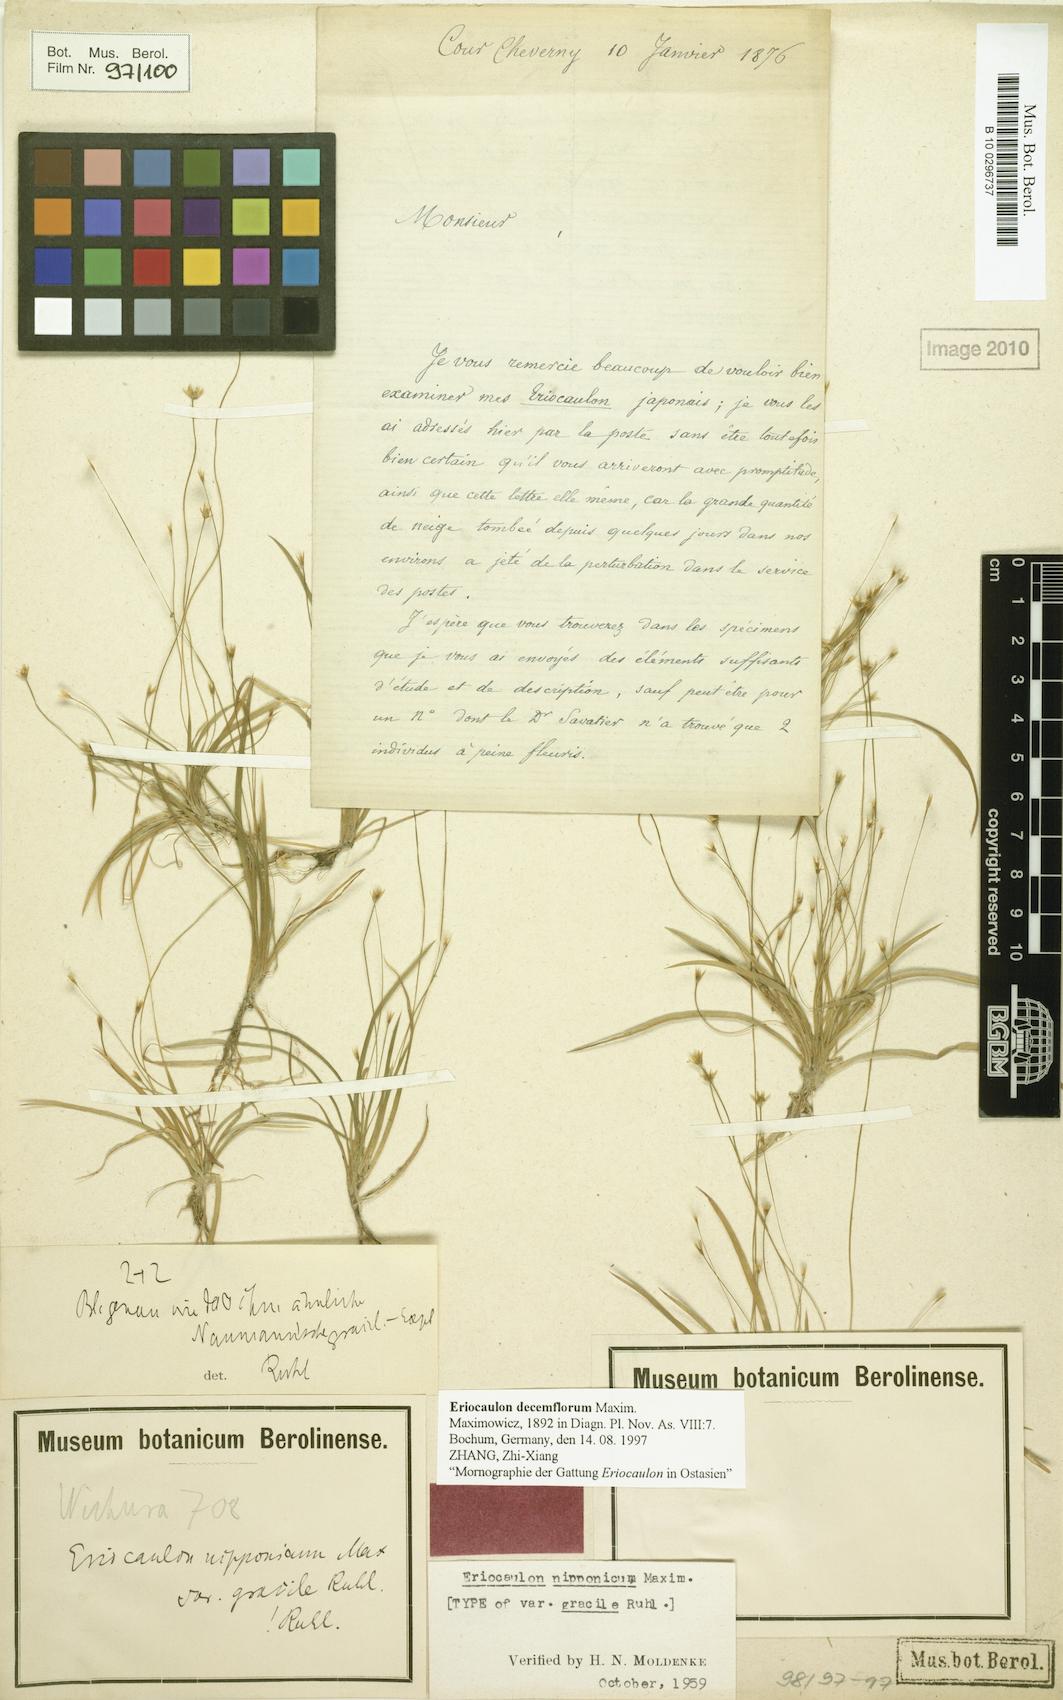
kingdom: Plantae
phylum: Tracheophyta
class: Liliopsida
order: Poales
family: Eriocaulaceae
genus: Eriocaulon
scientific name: Eriocaulon decemflorum
